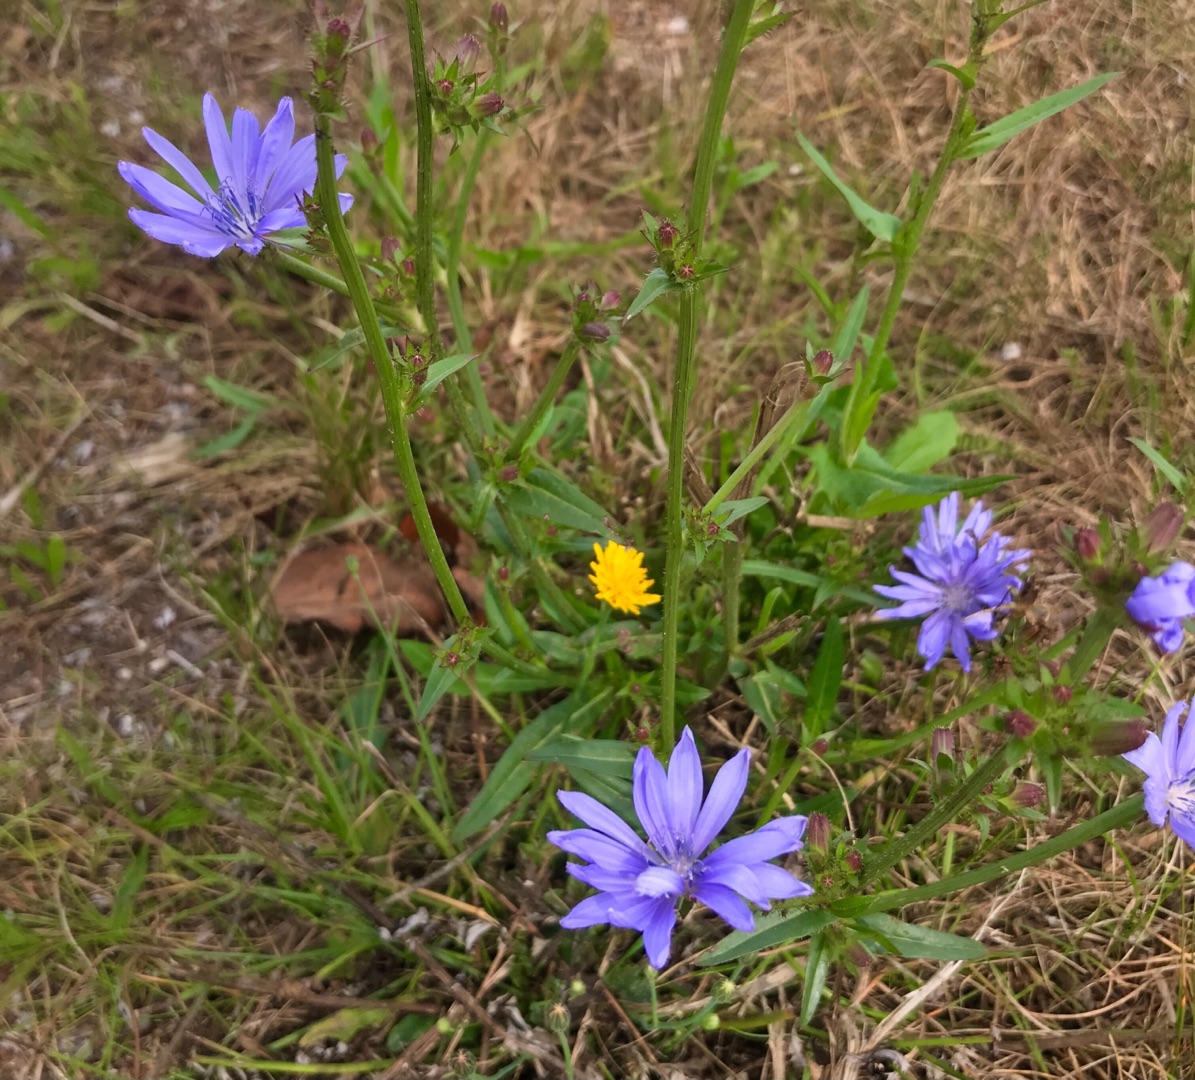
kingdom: Plantae
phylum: Tracheophyta
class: Magnoliopsida
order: Asterales
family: Asteraceae
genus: Cichorium
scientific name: Cichorium intybus
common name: Cikorie
